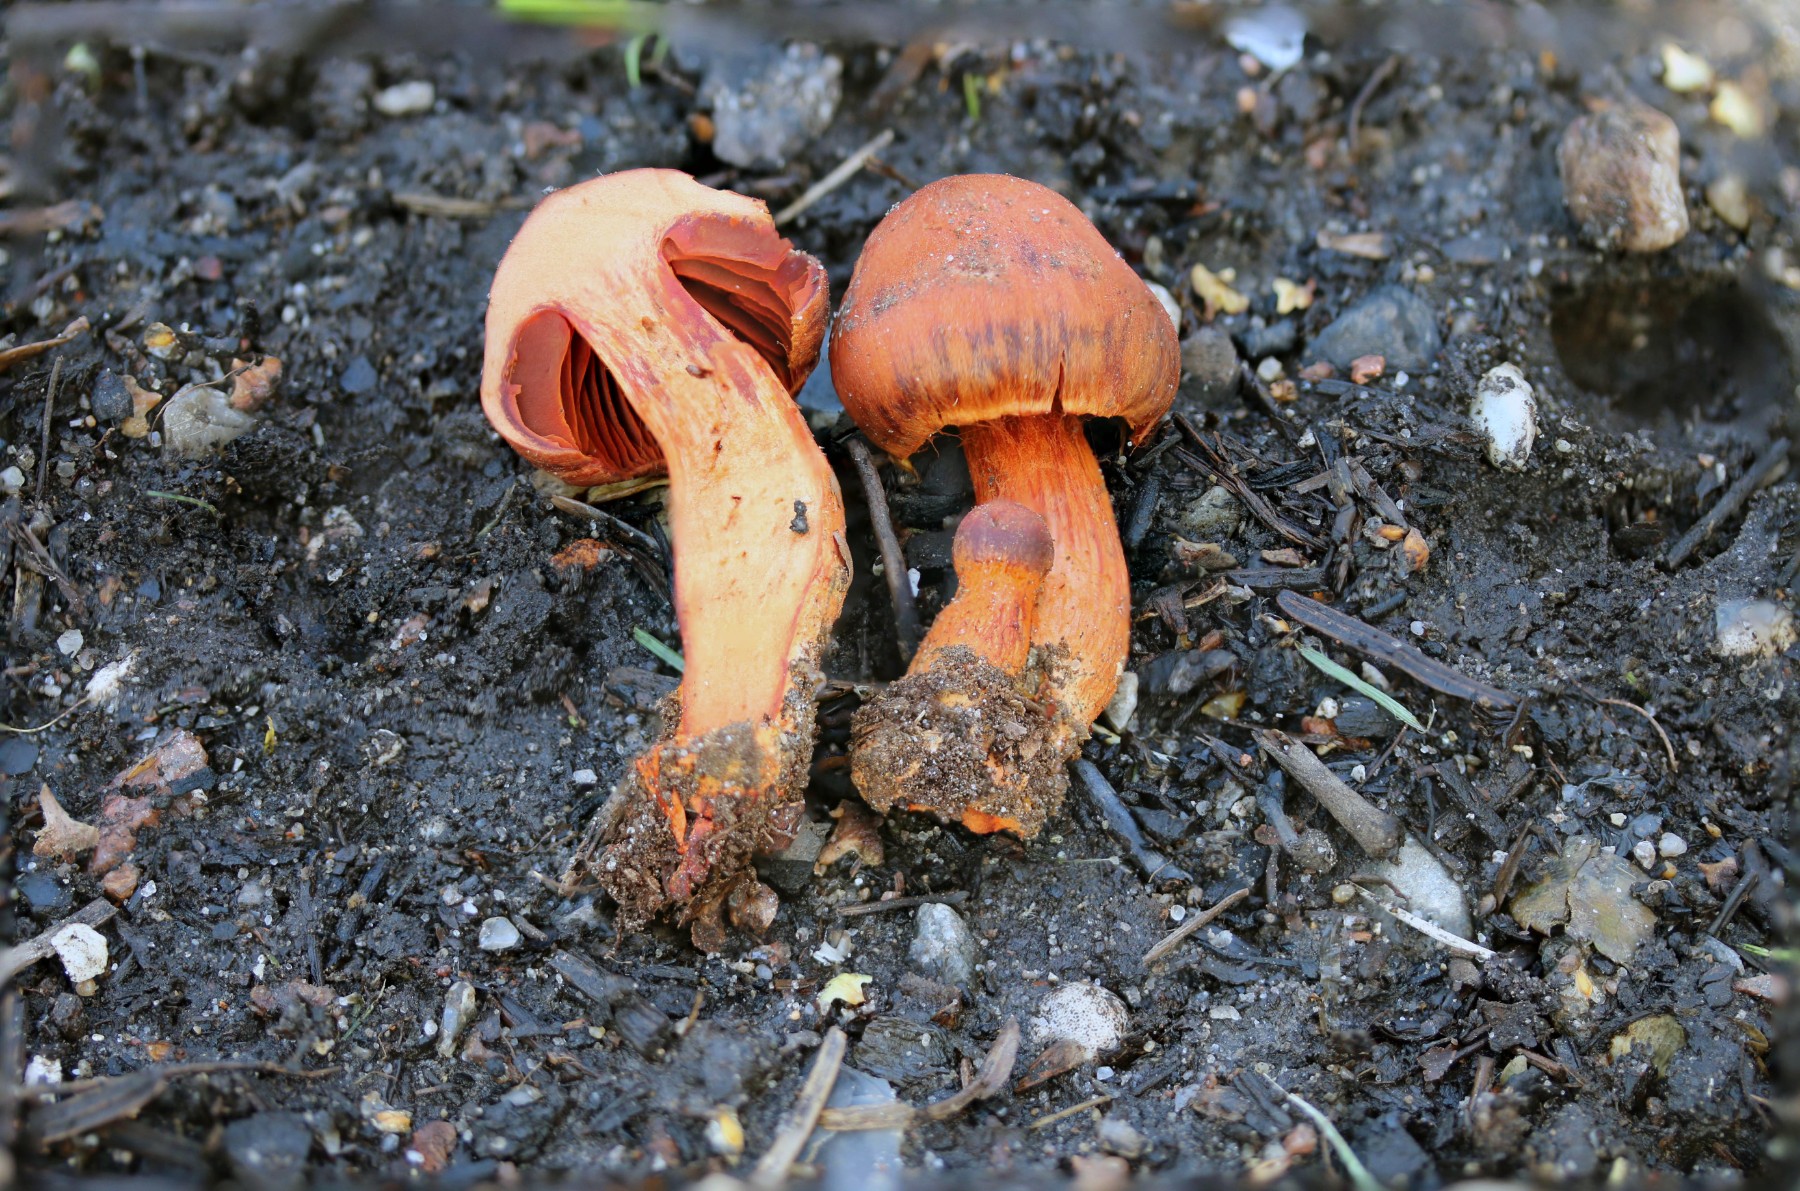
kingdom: Fungi
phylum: Basidiomycota
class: Agaricomycetes
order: Agaricales
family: Cortinariaceae
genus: Cortinarius
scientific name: Cortinarius cinnabarinus
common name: cinnober-slørhat
